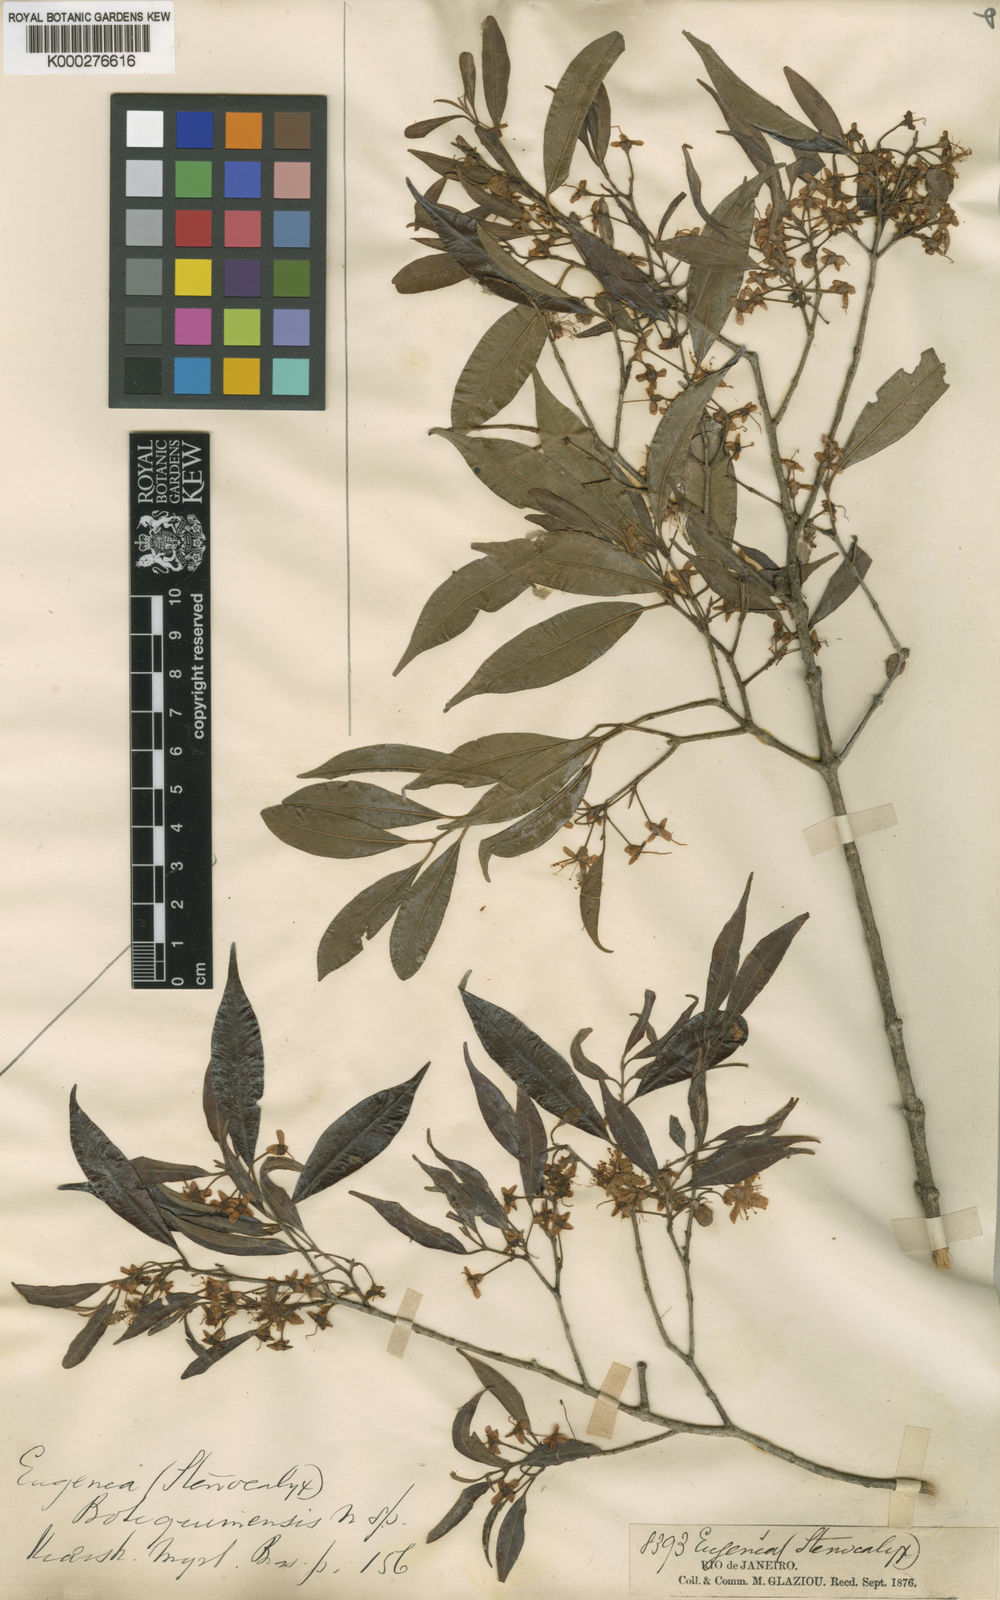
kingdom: Plantae
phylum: Tracheophyta
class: Magnoliopsida
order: Myrtales
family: Myrtaceae
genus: Eugenia
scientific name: Eugenia botequimensis
